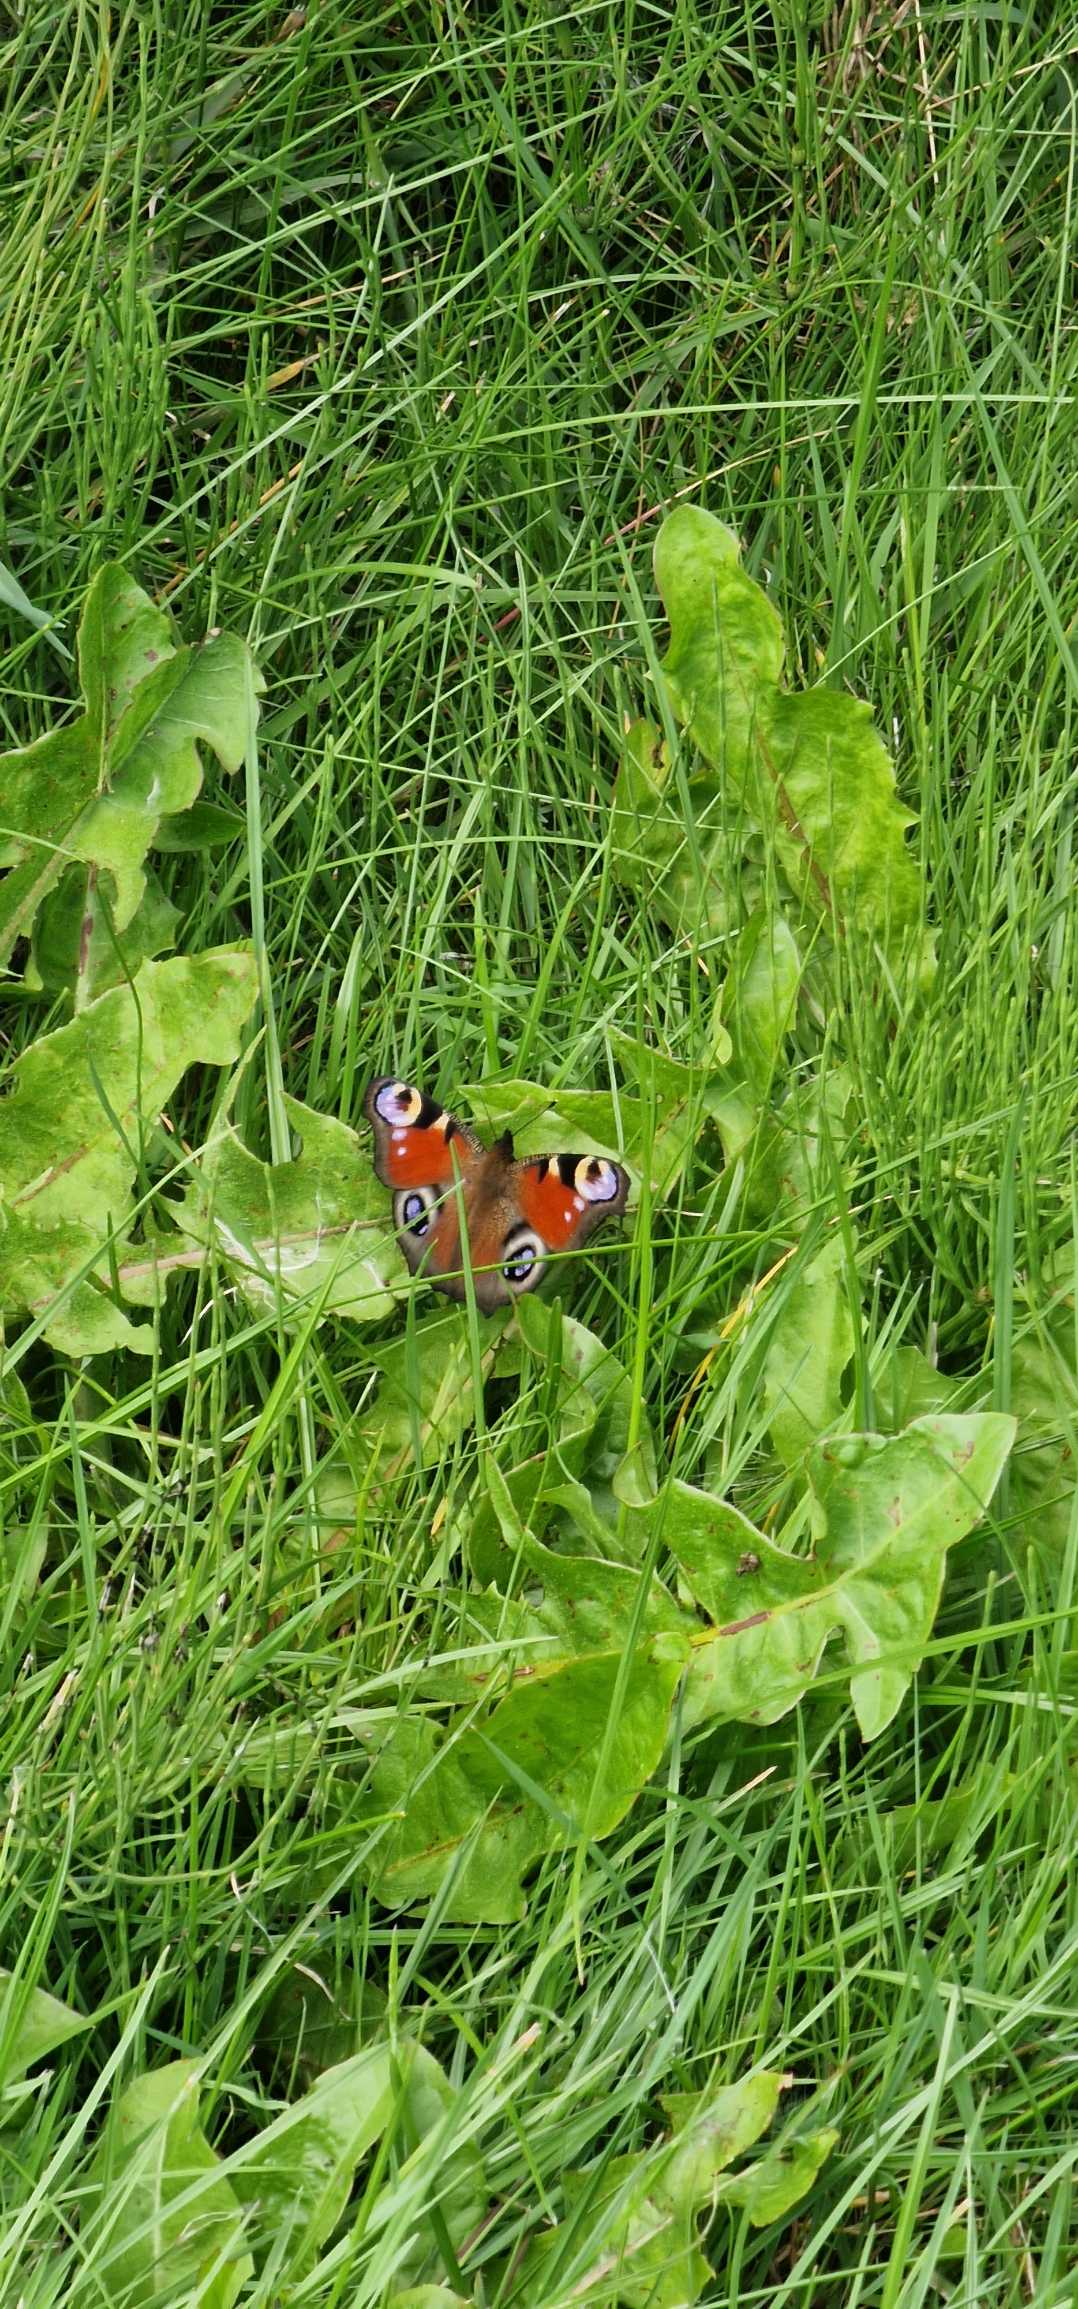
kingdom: Animalia
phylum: Arthropoda
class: Insecta
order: Lepidoptera
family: Nymphalidae
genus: Aglais
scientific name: Aglais io
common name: Dagpåfugleøje
